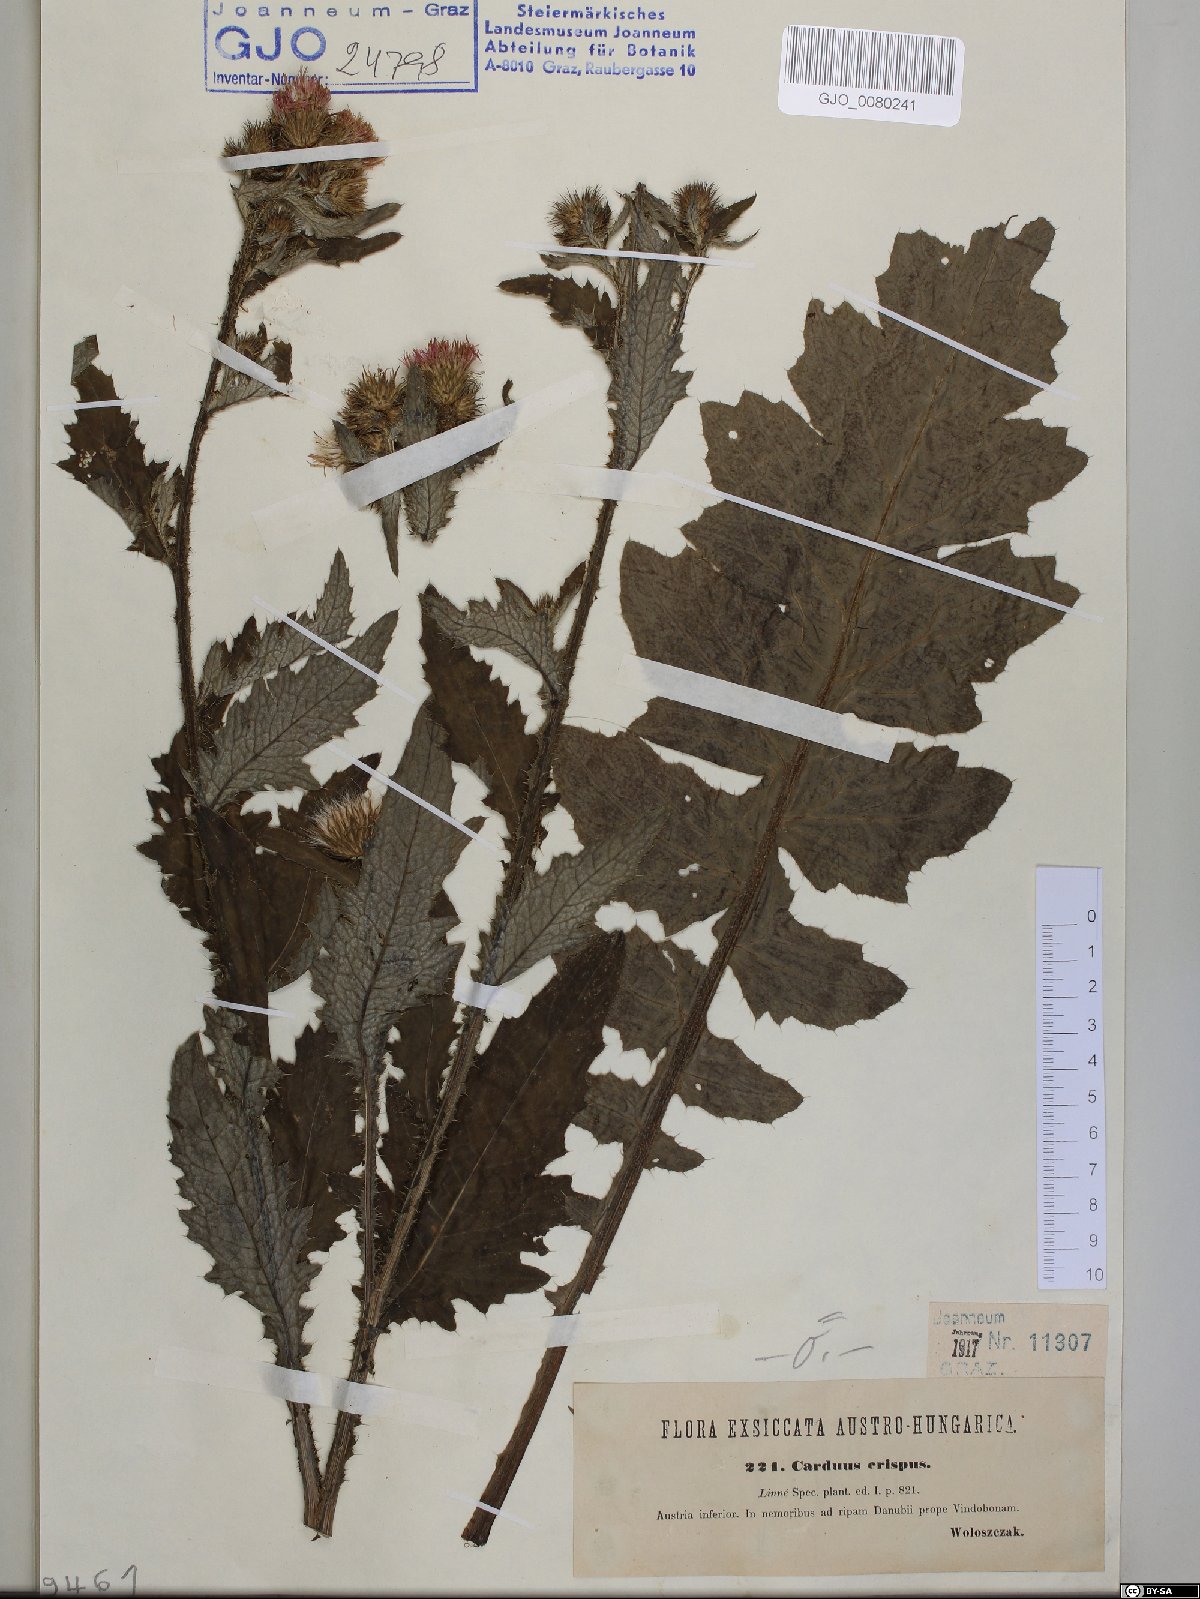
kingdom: Plantae
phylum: Tracheophyta
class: Magnoliopsida
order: Asterales
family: Asteraceae
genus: Carduus
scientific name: Carduus crispus
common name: Welted thistle
